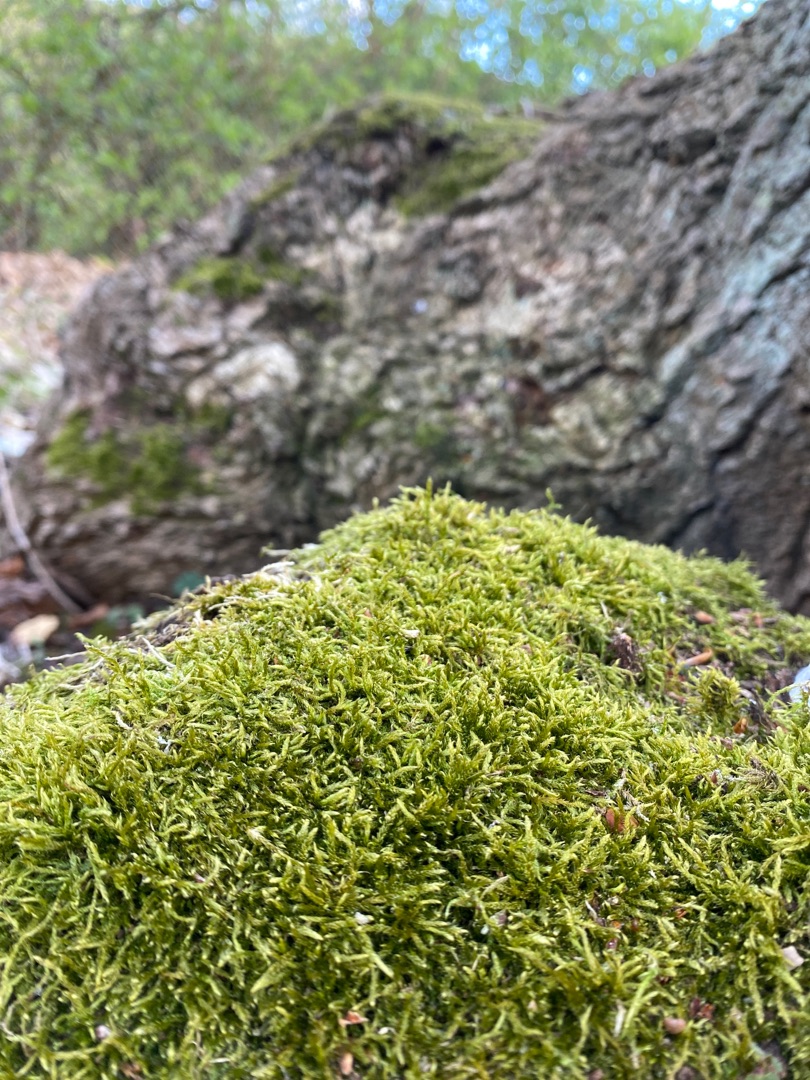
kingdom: Plantae
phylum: Bryophyta
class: Bryopsida
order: Hypnales
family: Hypnaceae
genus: Hypnum
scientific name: Hypnum cupressiforme
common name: Almindelig cypresmos
